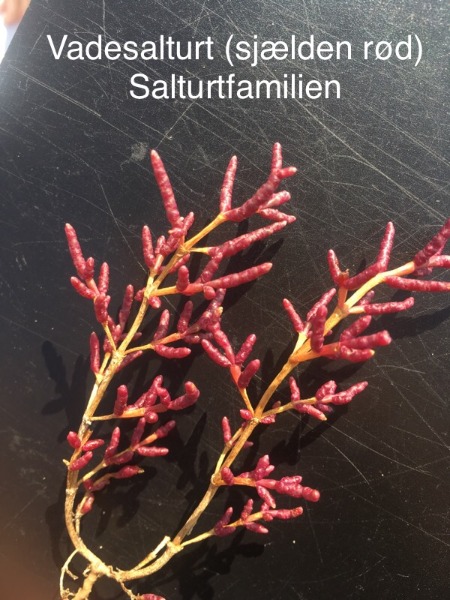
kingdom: Plantae
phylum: Tracheophyta
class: Magnoliopsida
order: Caryophyllales
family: Amaranthaceae
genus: Salicornia
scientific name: Salicornia europaea
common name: Almindelig salturt
